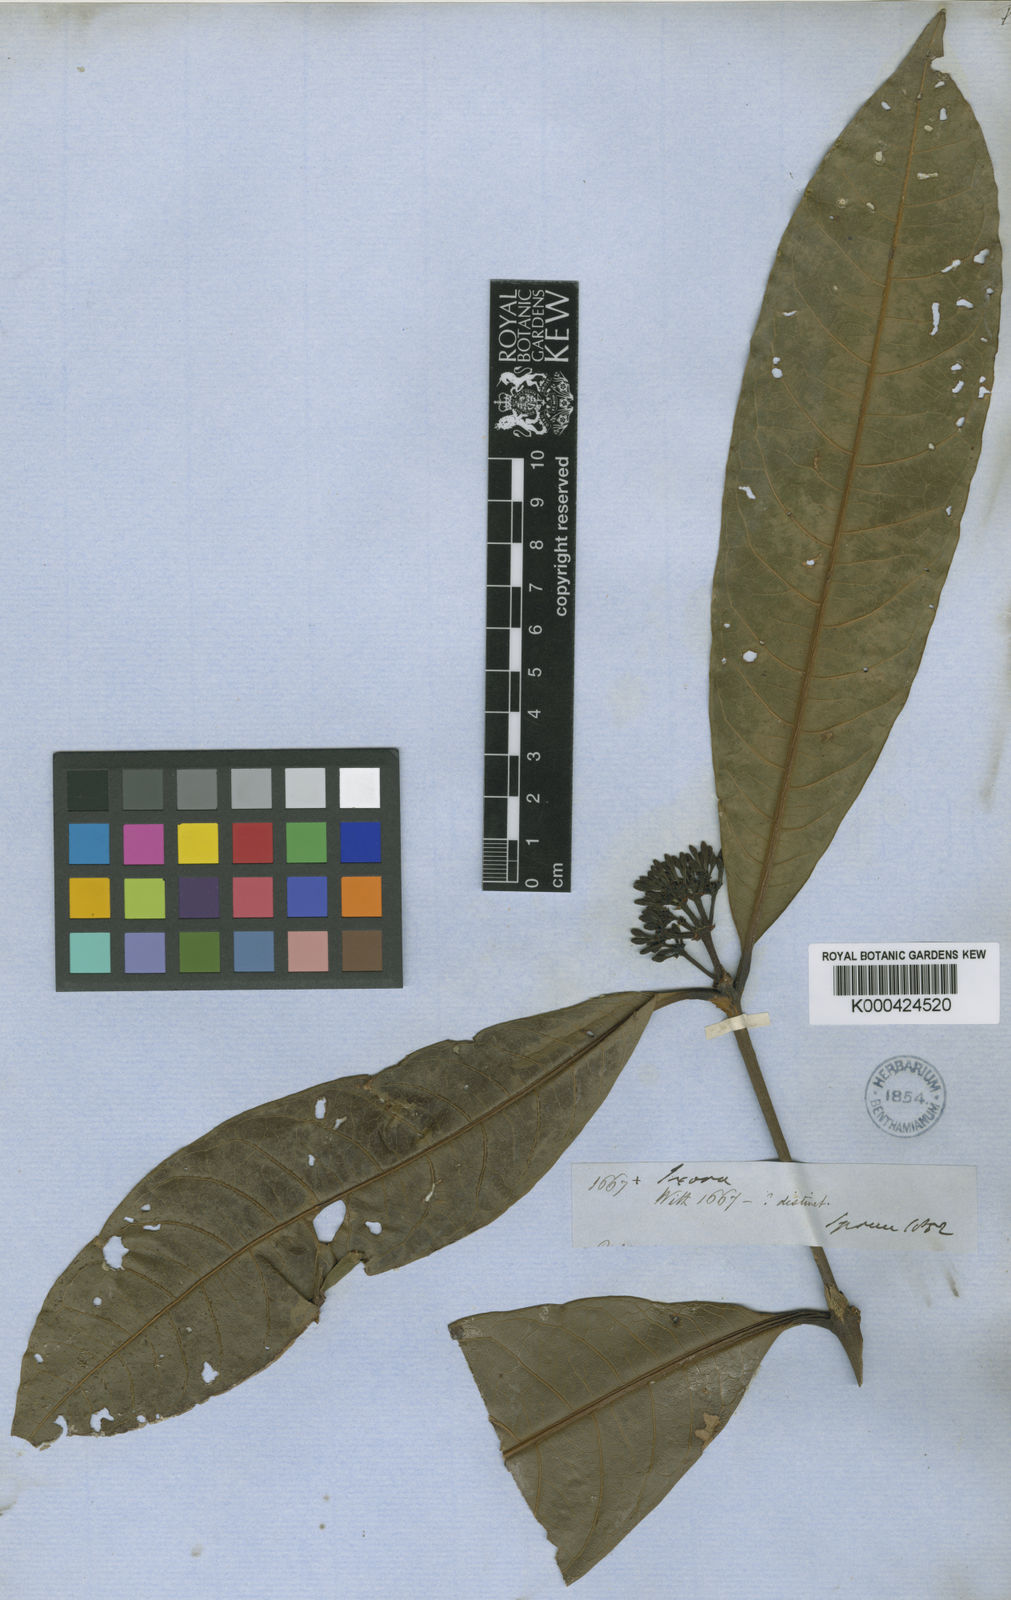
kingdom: Plantae
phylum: Tracheophyta
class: Magnoliopsida
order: Gentianales
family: Rubiaceae
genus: Ixora
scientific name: Ixora
